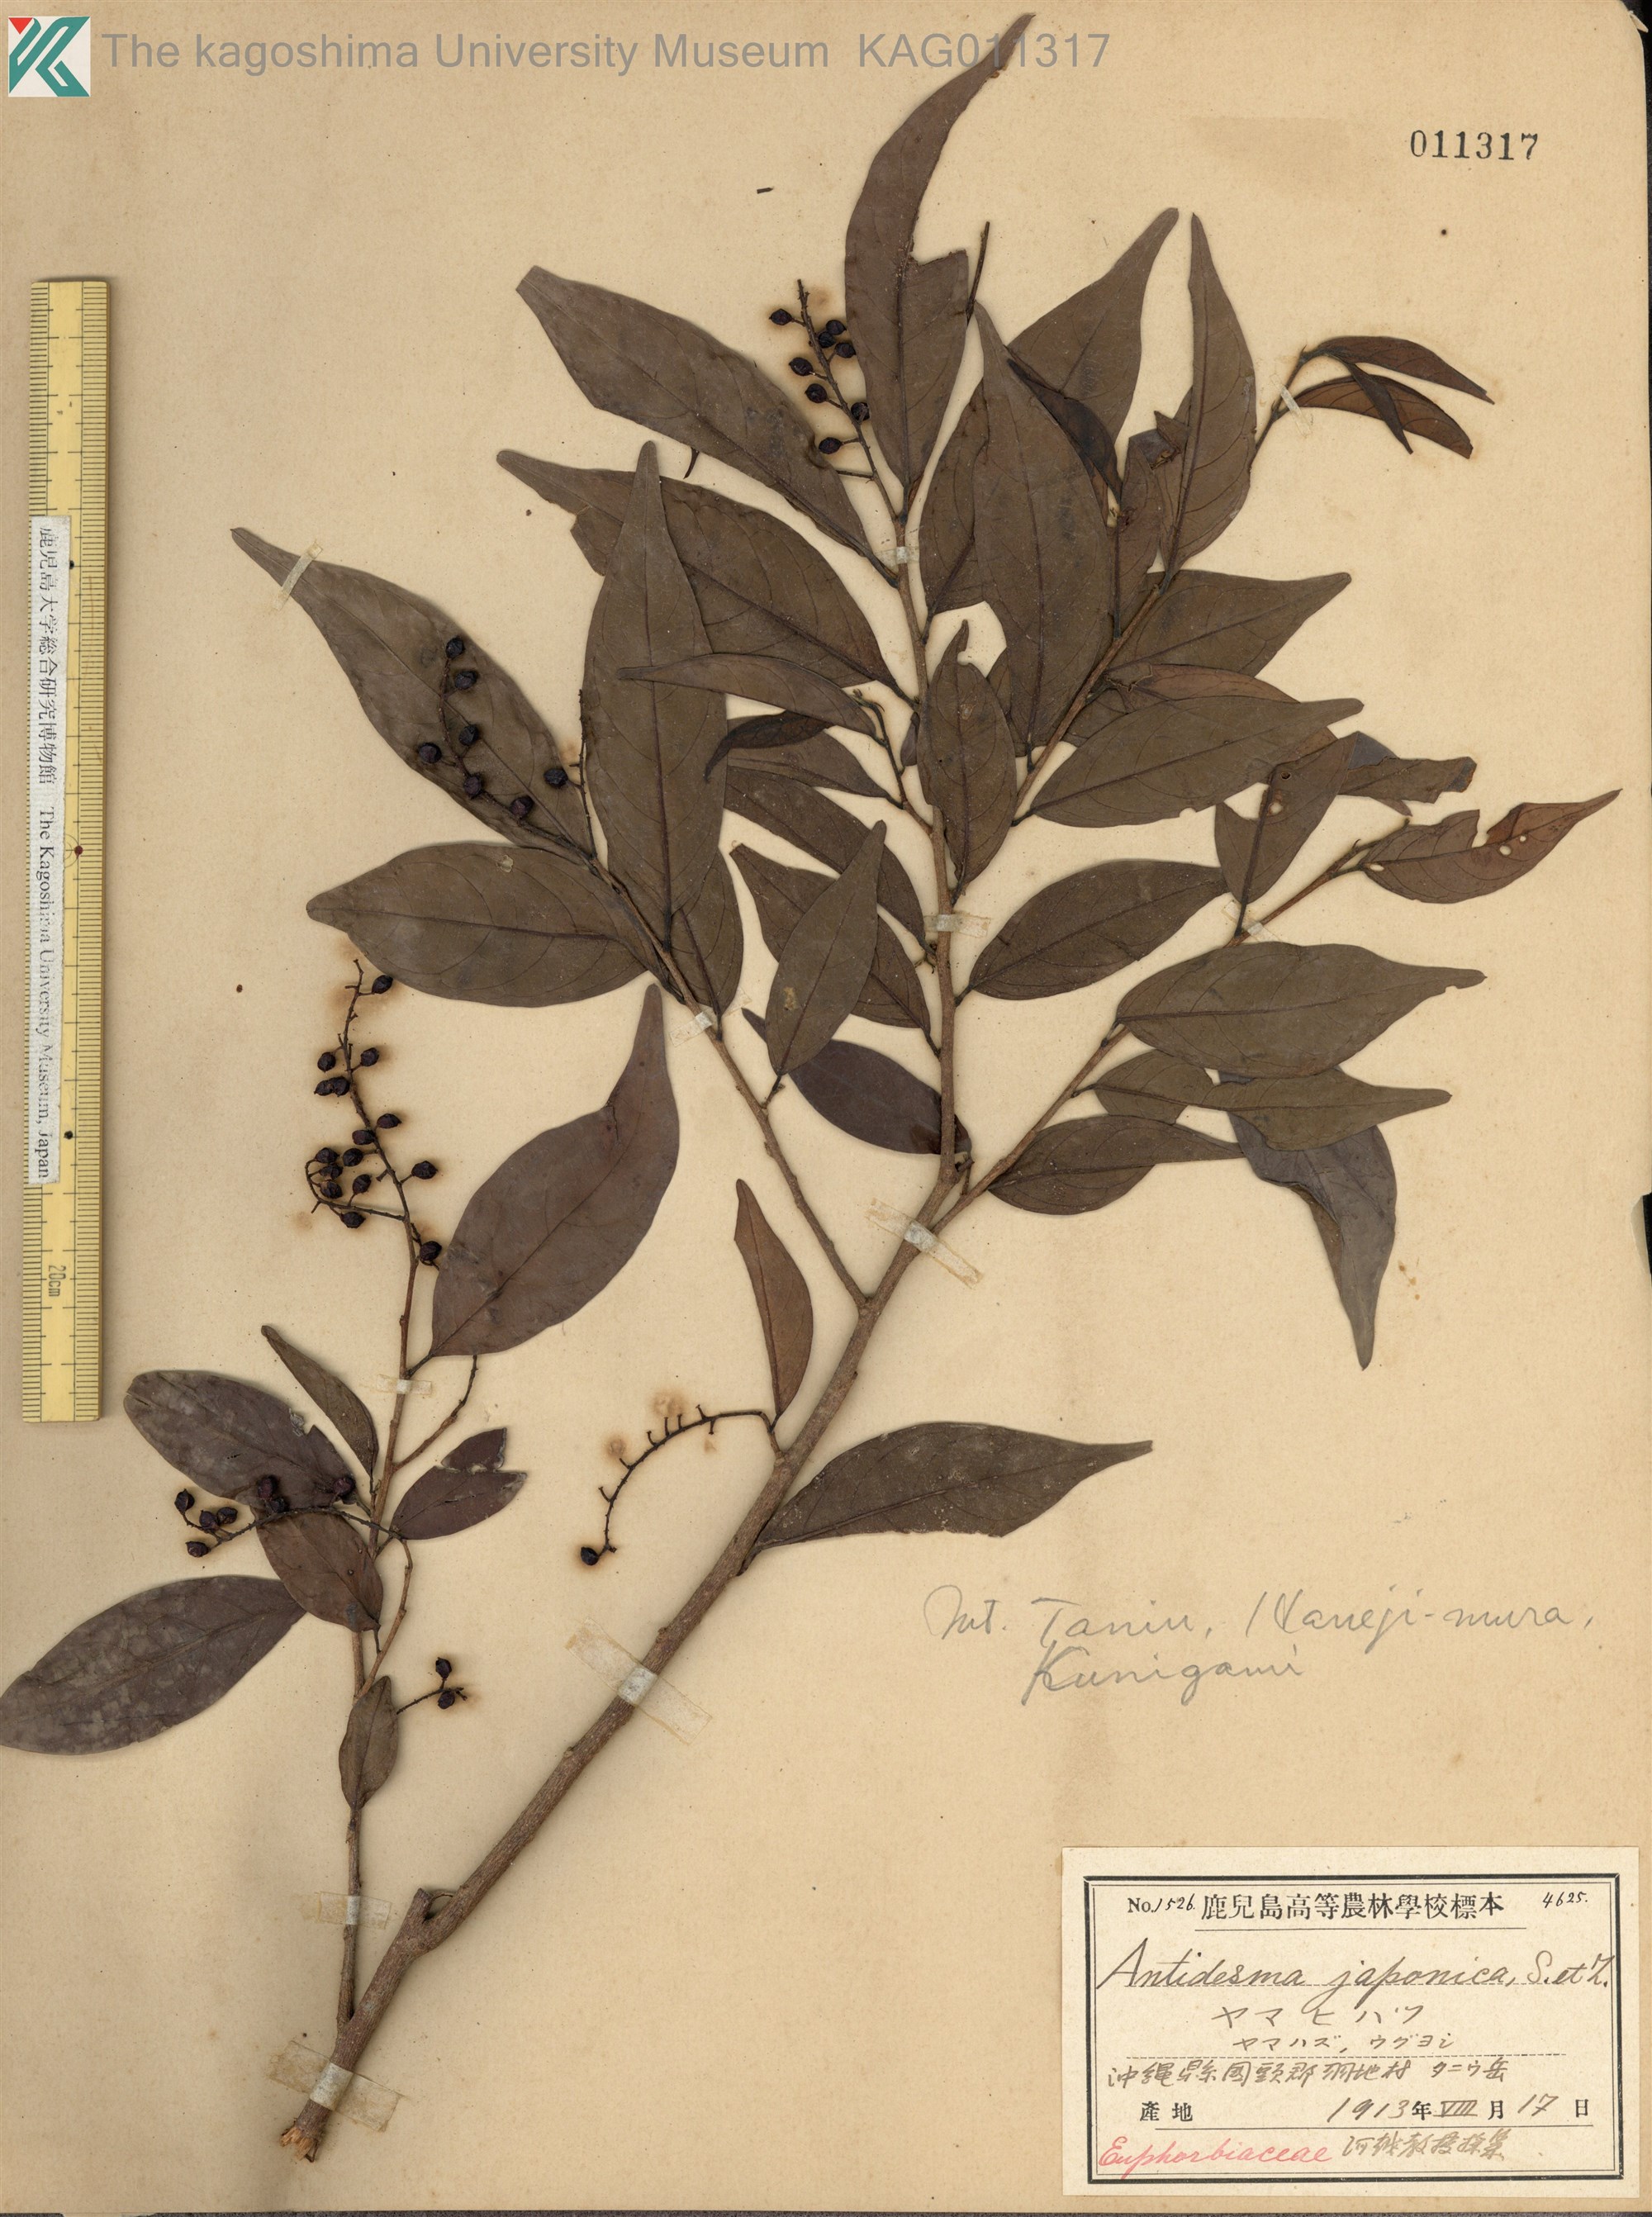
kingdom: Plantae
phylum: Tracheophyta
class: Magnoliopsida
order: Malpighiales
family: Phyllanthaceae
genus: Antidesma
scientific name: Antidesma japonicum
